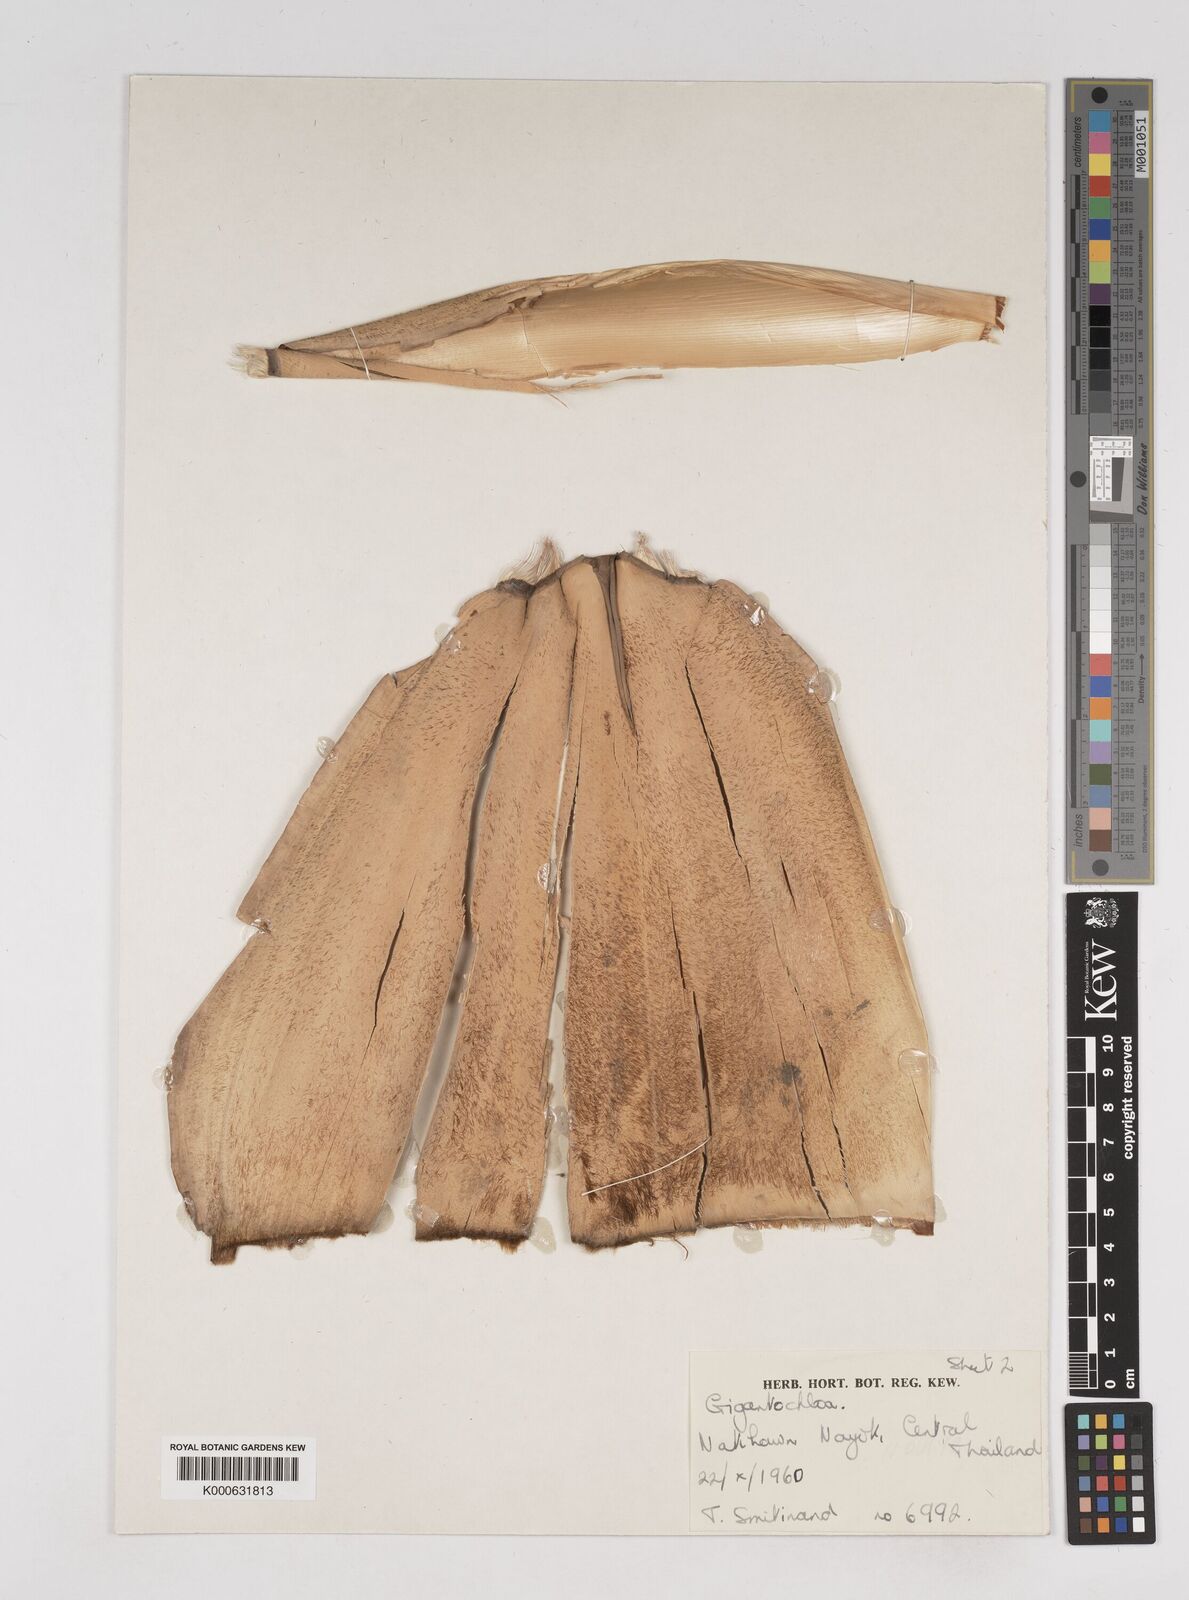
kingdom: Plantae
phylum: Tracheophyta
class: Liliopsida
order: Poales
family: Poaceae
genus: Gigantochloa
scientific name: Gigantochloa
